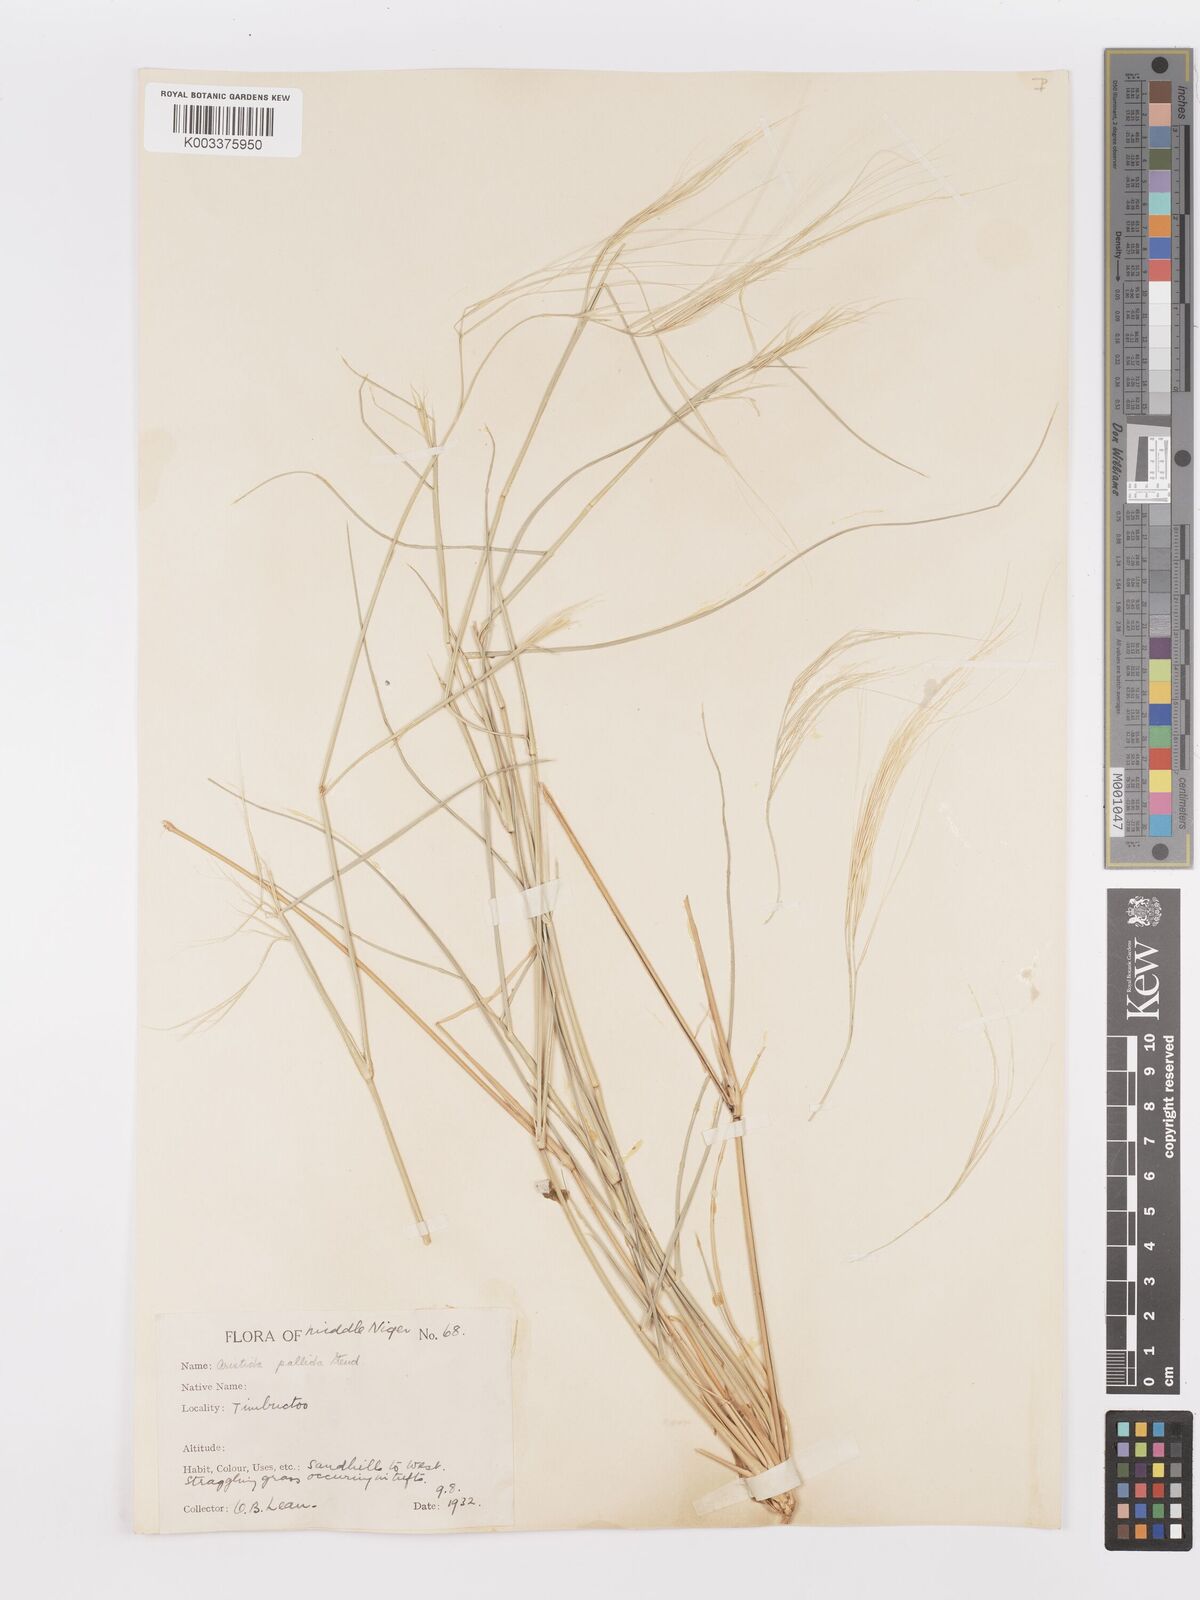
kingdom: Plantae
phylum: Tracheophyta
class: Liliopsida
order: Poales
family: Poaceae
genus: Aristida
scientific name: Aristida sieberiana
